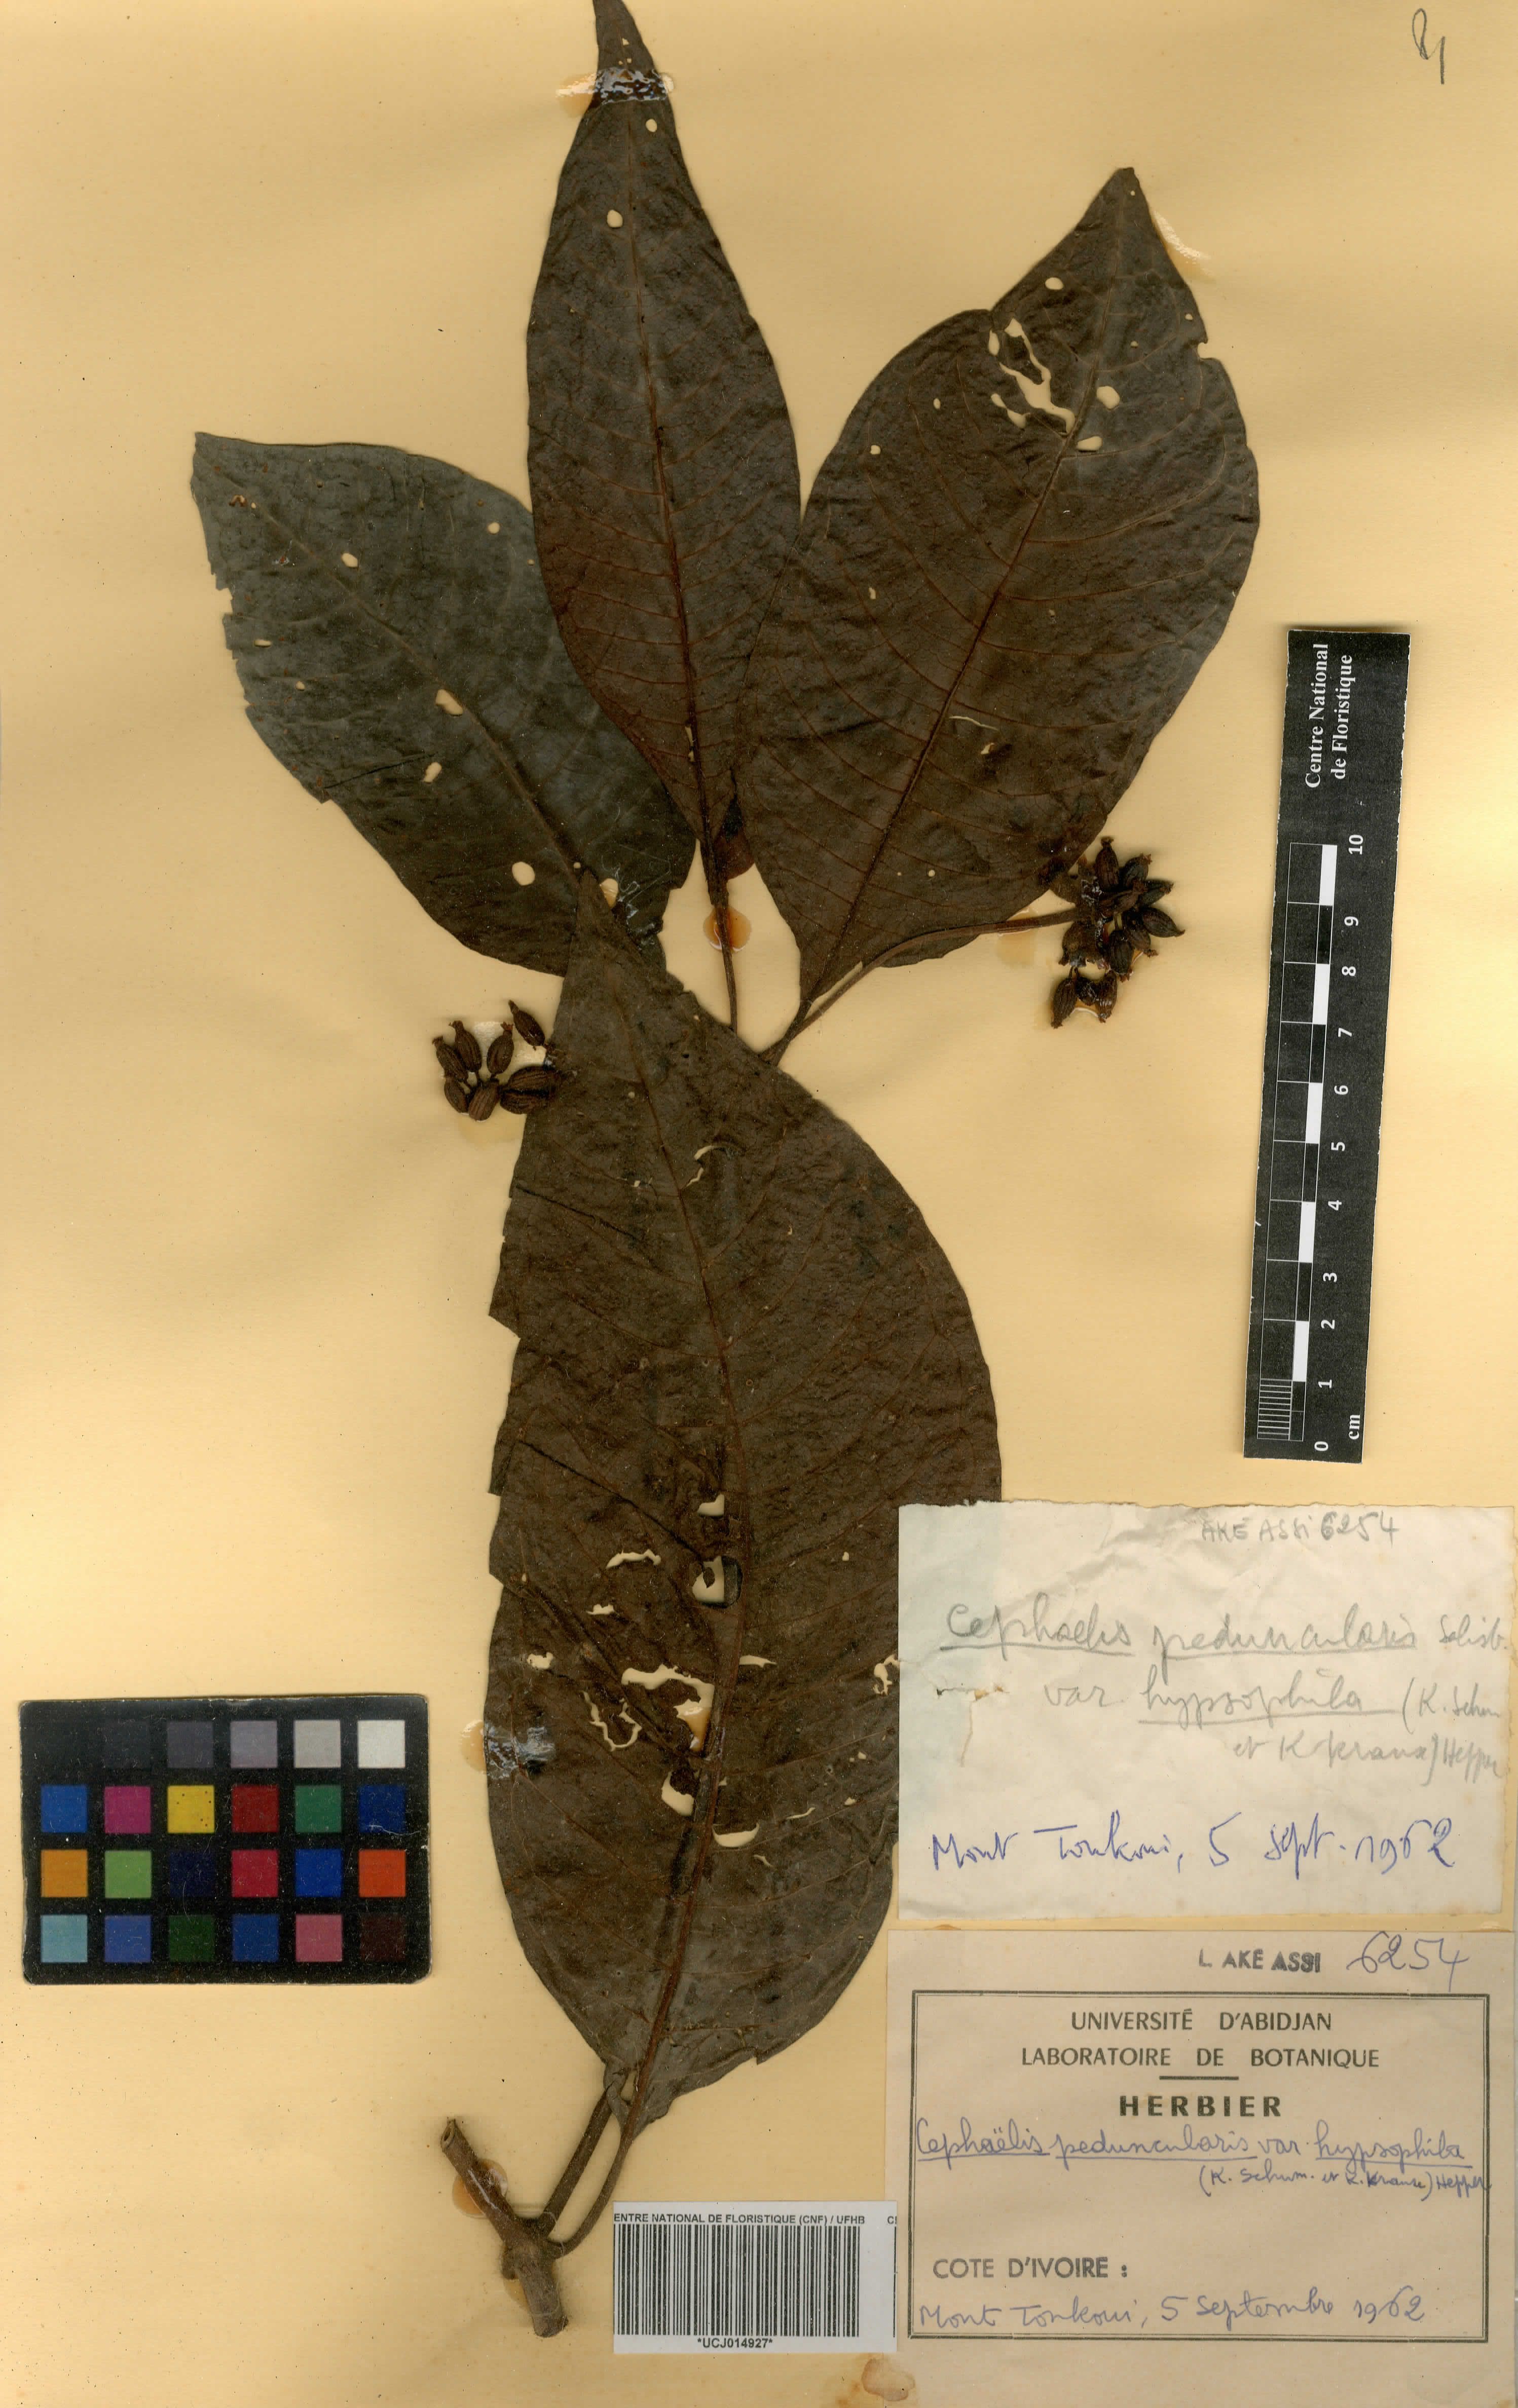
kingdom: Plantae
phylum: Tracheophyta
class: Magnoliopsida
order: Gentianales
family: Rubiaceae
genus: Psychotria
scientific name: Psychotria peduncularis
